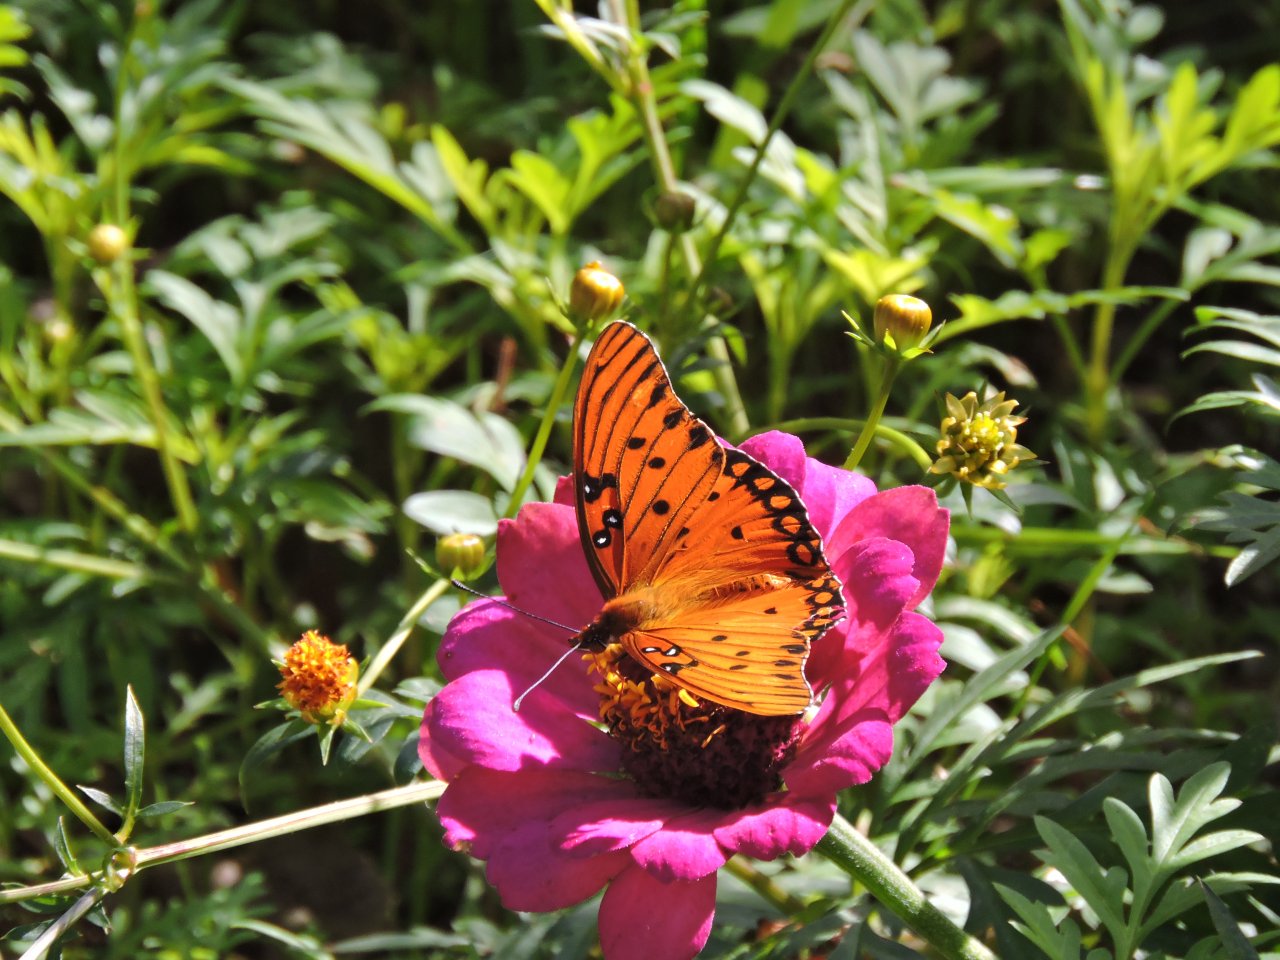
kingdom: Animalia
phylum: Arthropoda
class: Insecta
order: Lepidoptera
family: Nymphalidae
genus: Dione
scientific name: Dione vanillae
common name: Gulf Fritillary
